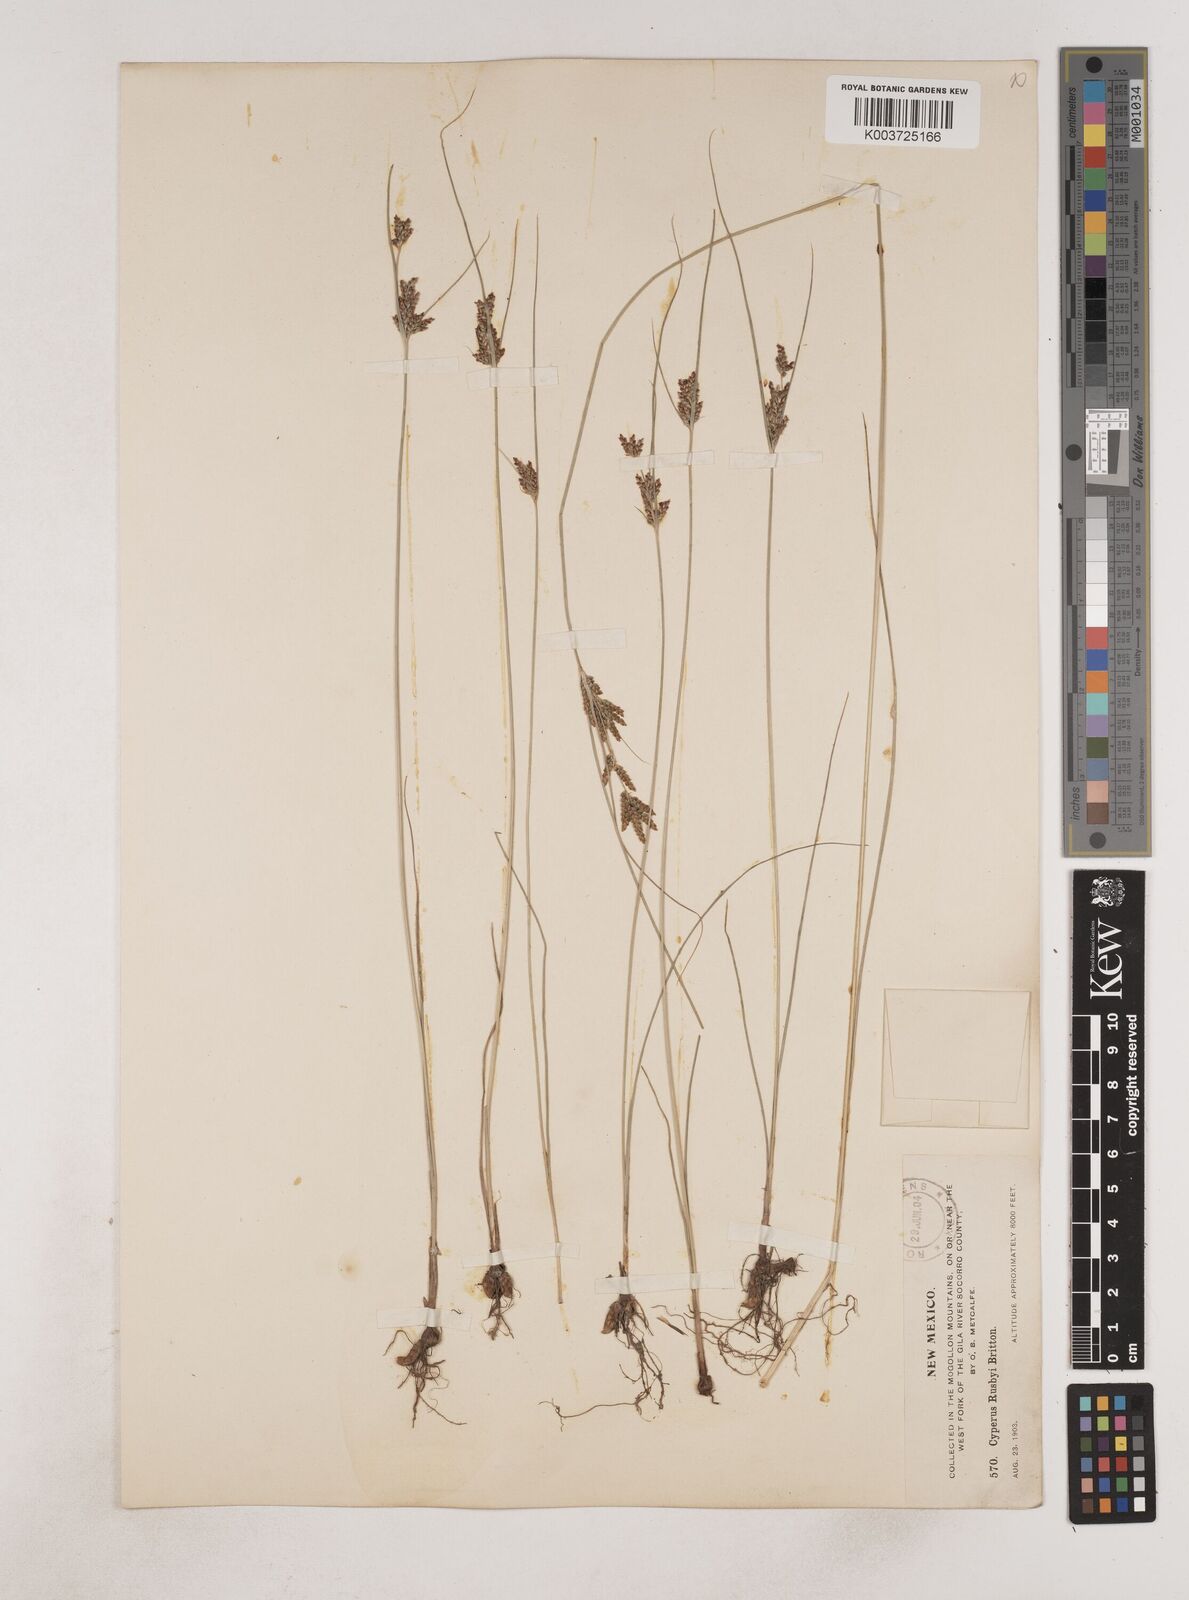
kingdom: Plantae
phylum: Tracheophyta
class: Liliopsida
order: Poales
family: Cyperaceae
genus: Cyperus
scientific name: Cyperus sphaerolepis
